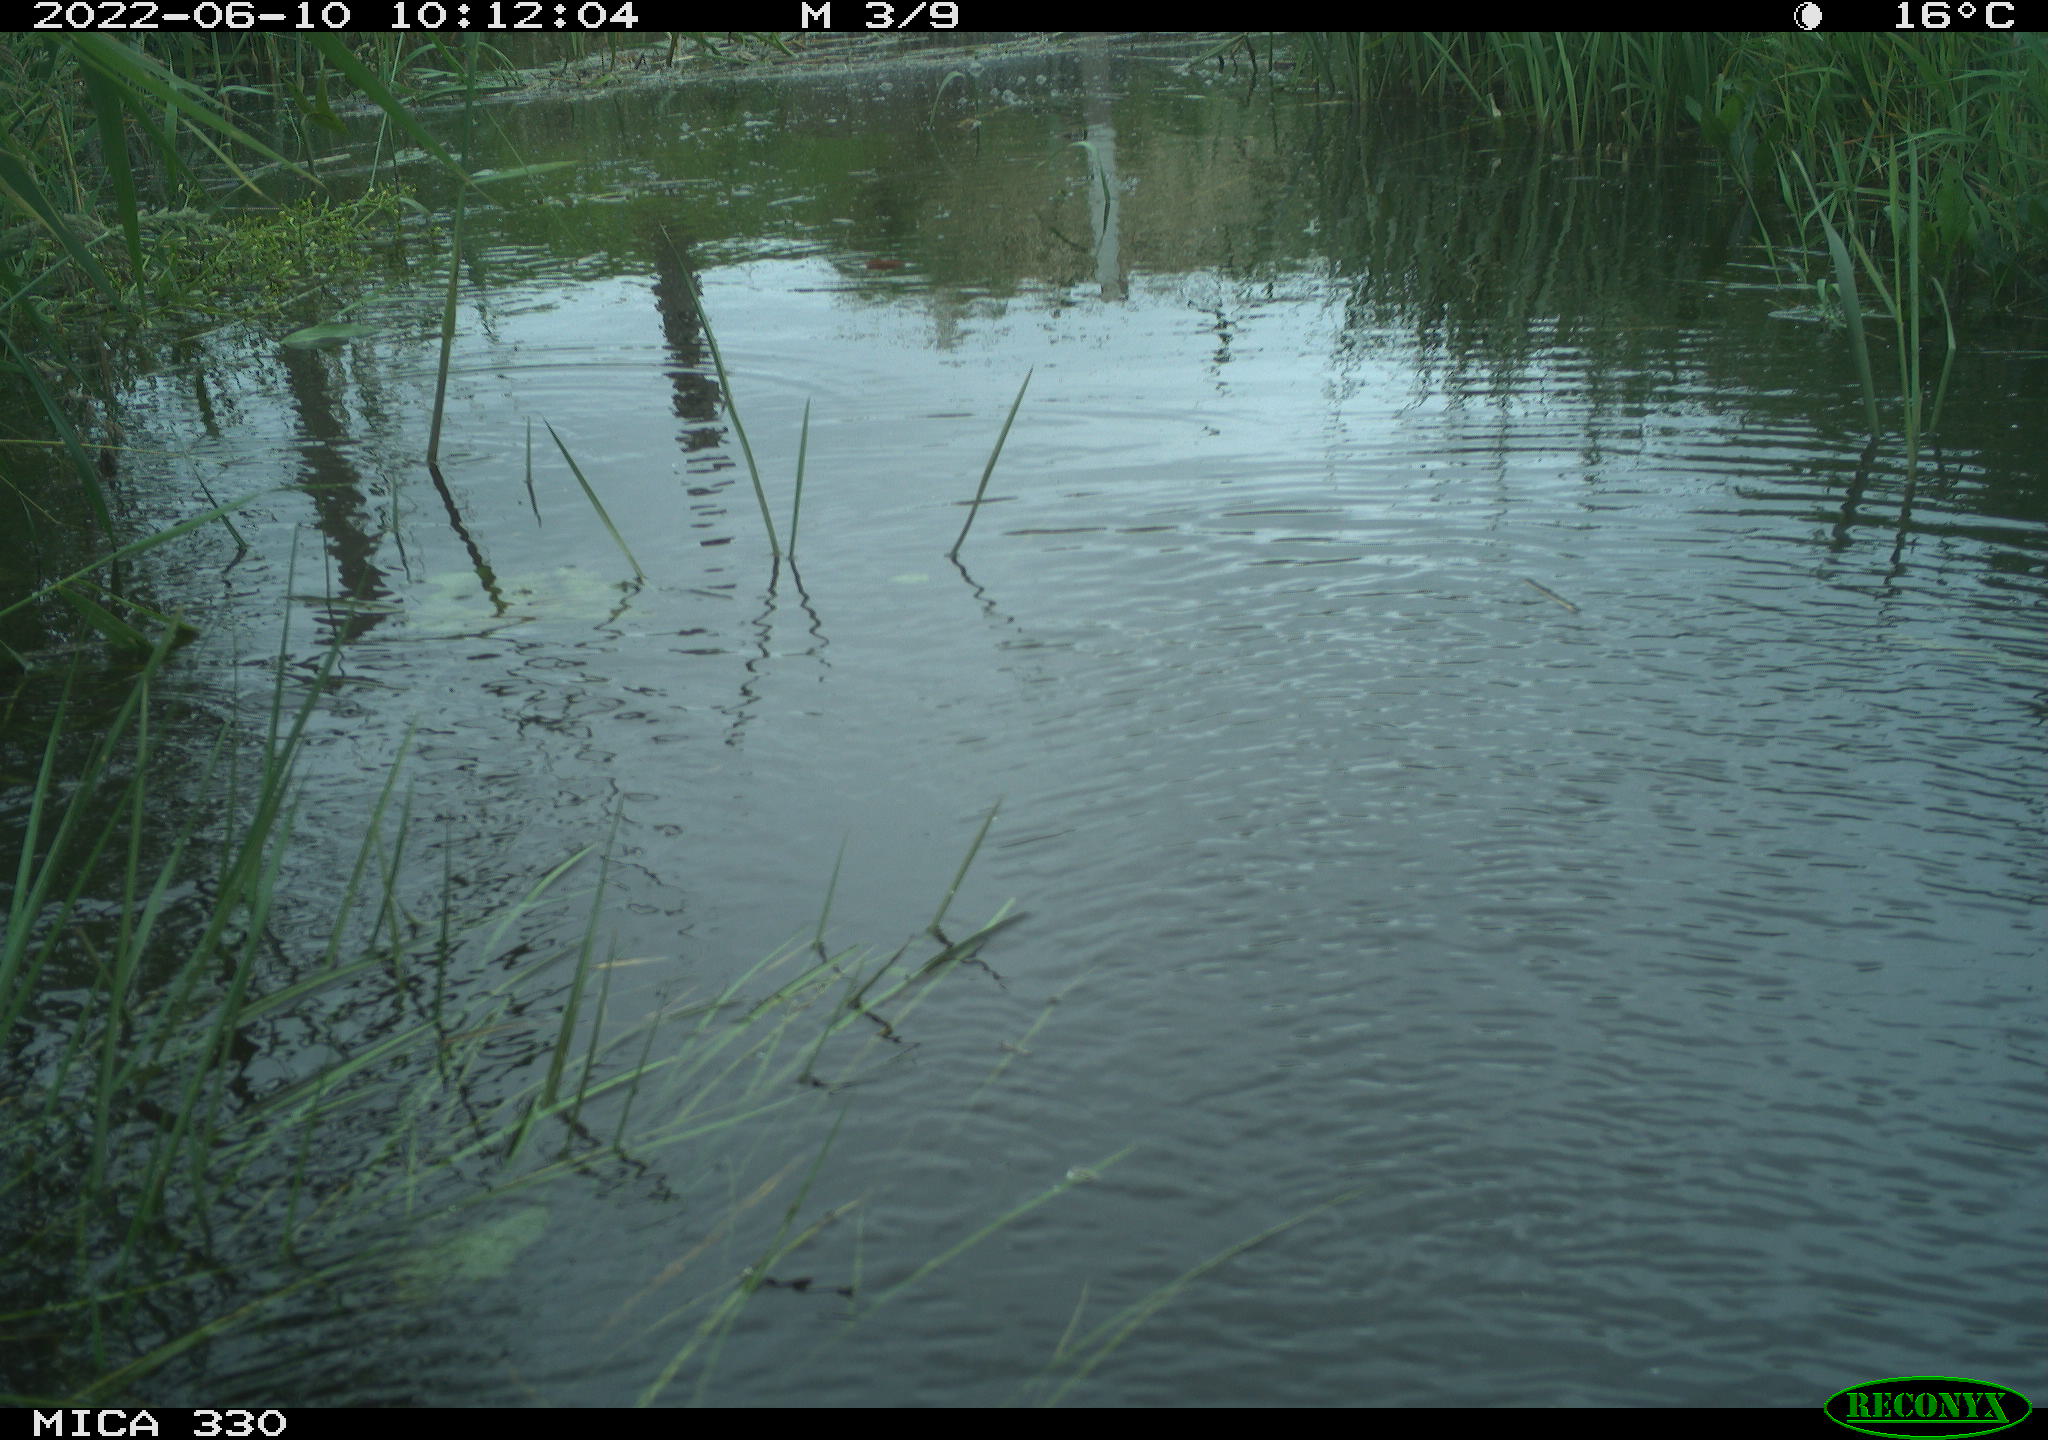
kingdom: Animalia
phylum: Chordata
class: Aves
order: Gruiformes
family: Rallidae
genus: Gallinula
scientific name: Gallinula chloropus
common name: Common moorhen
